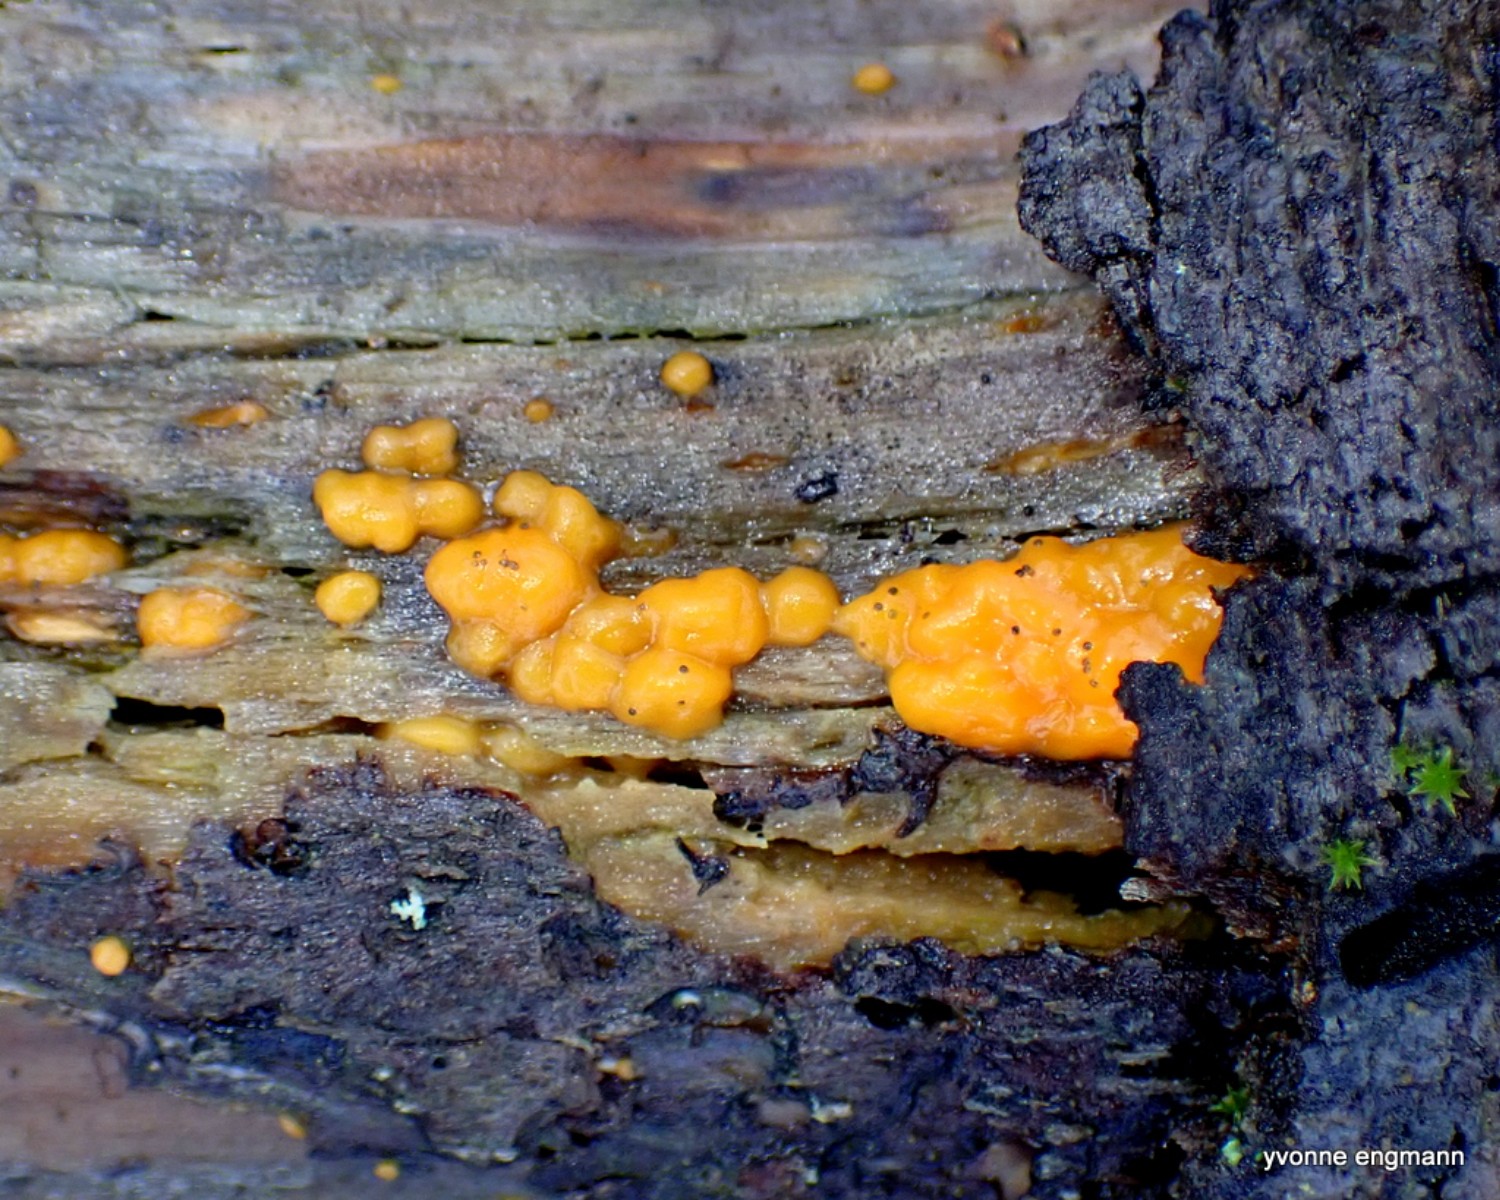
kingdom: Fungi
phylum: Basidiomycota
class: Dacrymycetes
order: Dacrymycetales
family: Dacrymycetaceae
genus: Dacrymyces
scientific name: Dacrymyces stillatus
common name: almindelig tåresvamp
